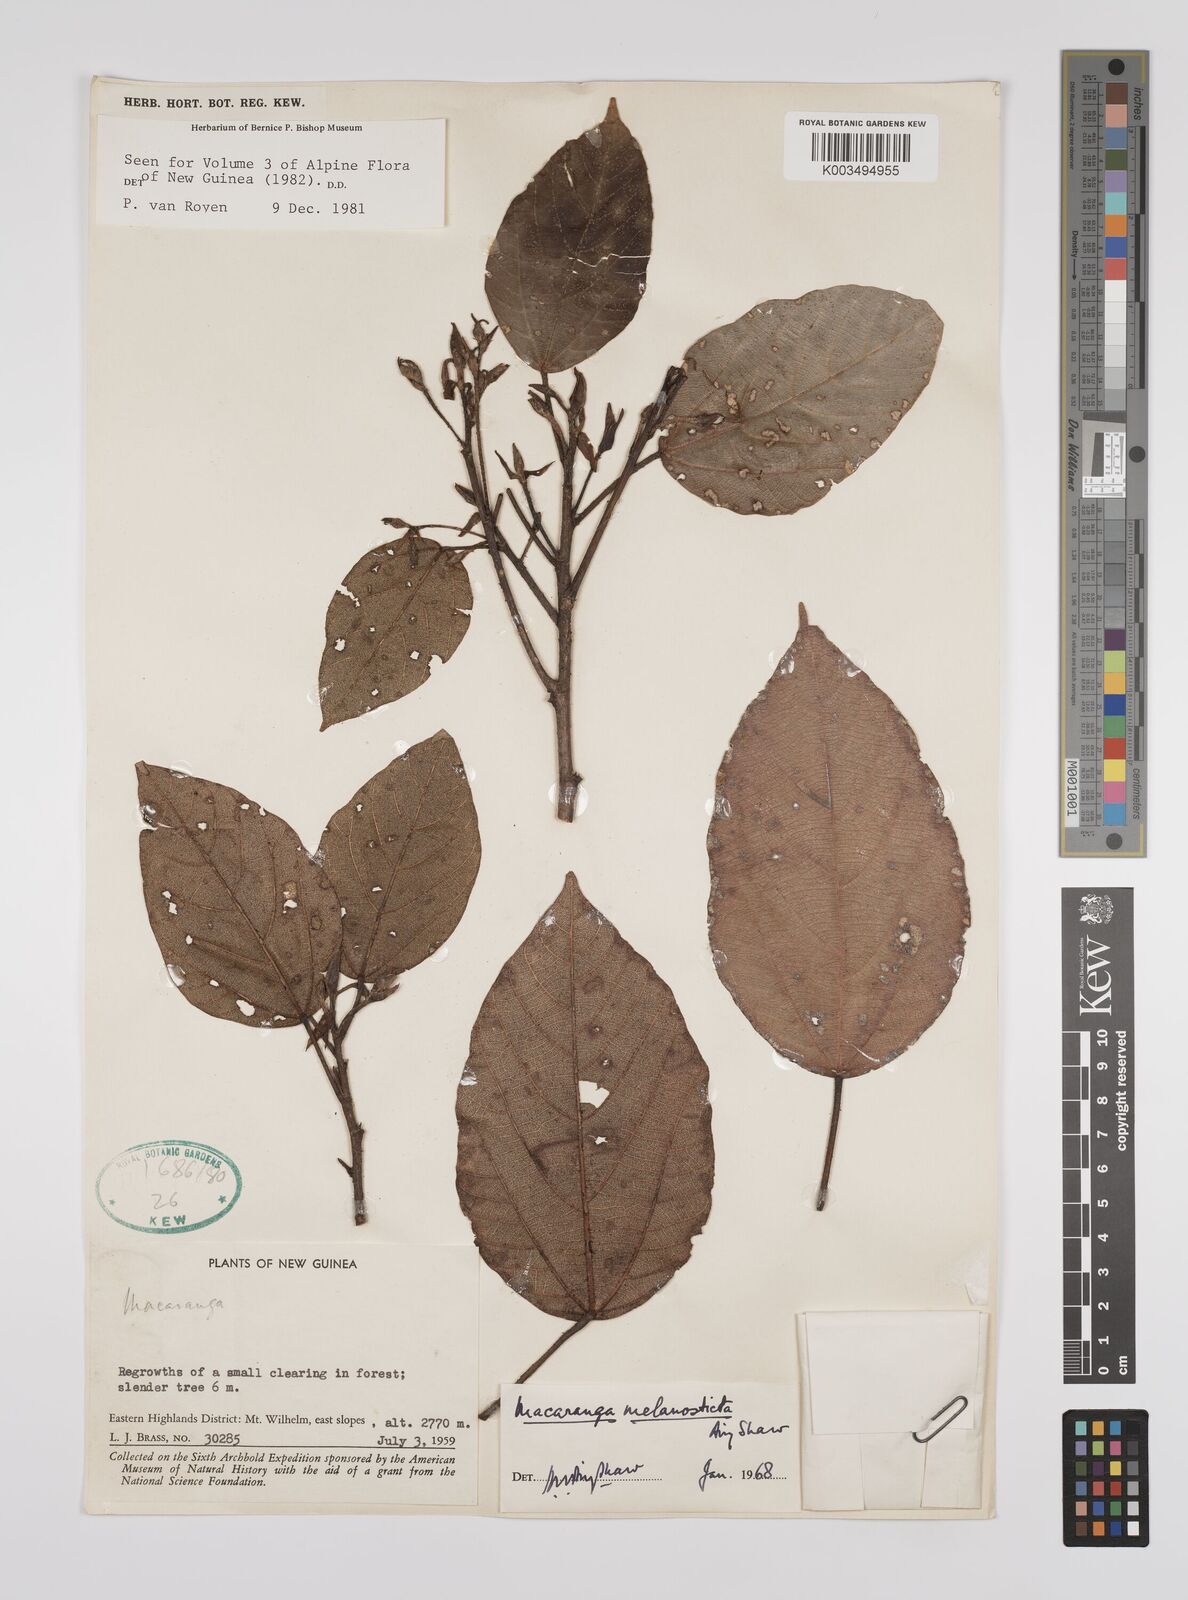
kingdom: Plantae
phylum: Tracheophyta
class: Magnoliopsida
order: Malpighiales
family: Euphorbiaceae
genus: Macaranga
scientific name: Macaranga melanosticta
